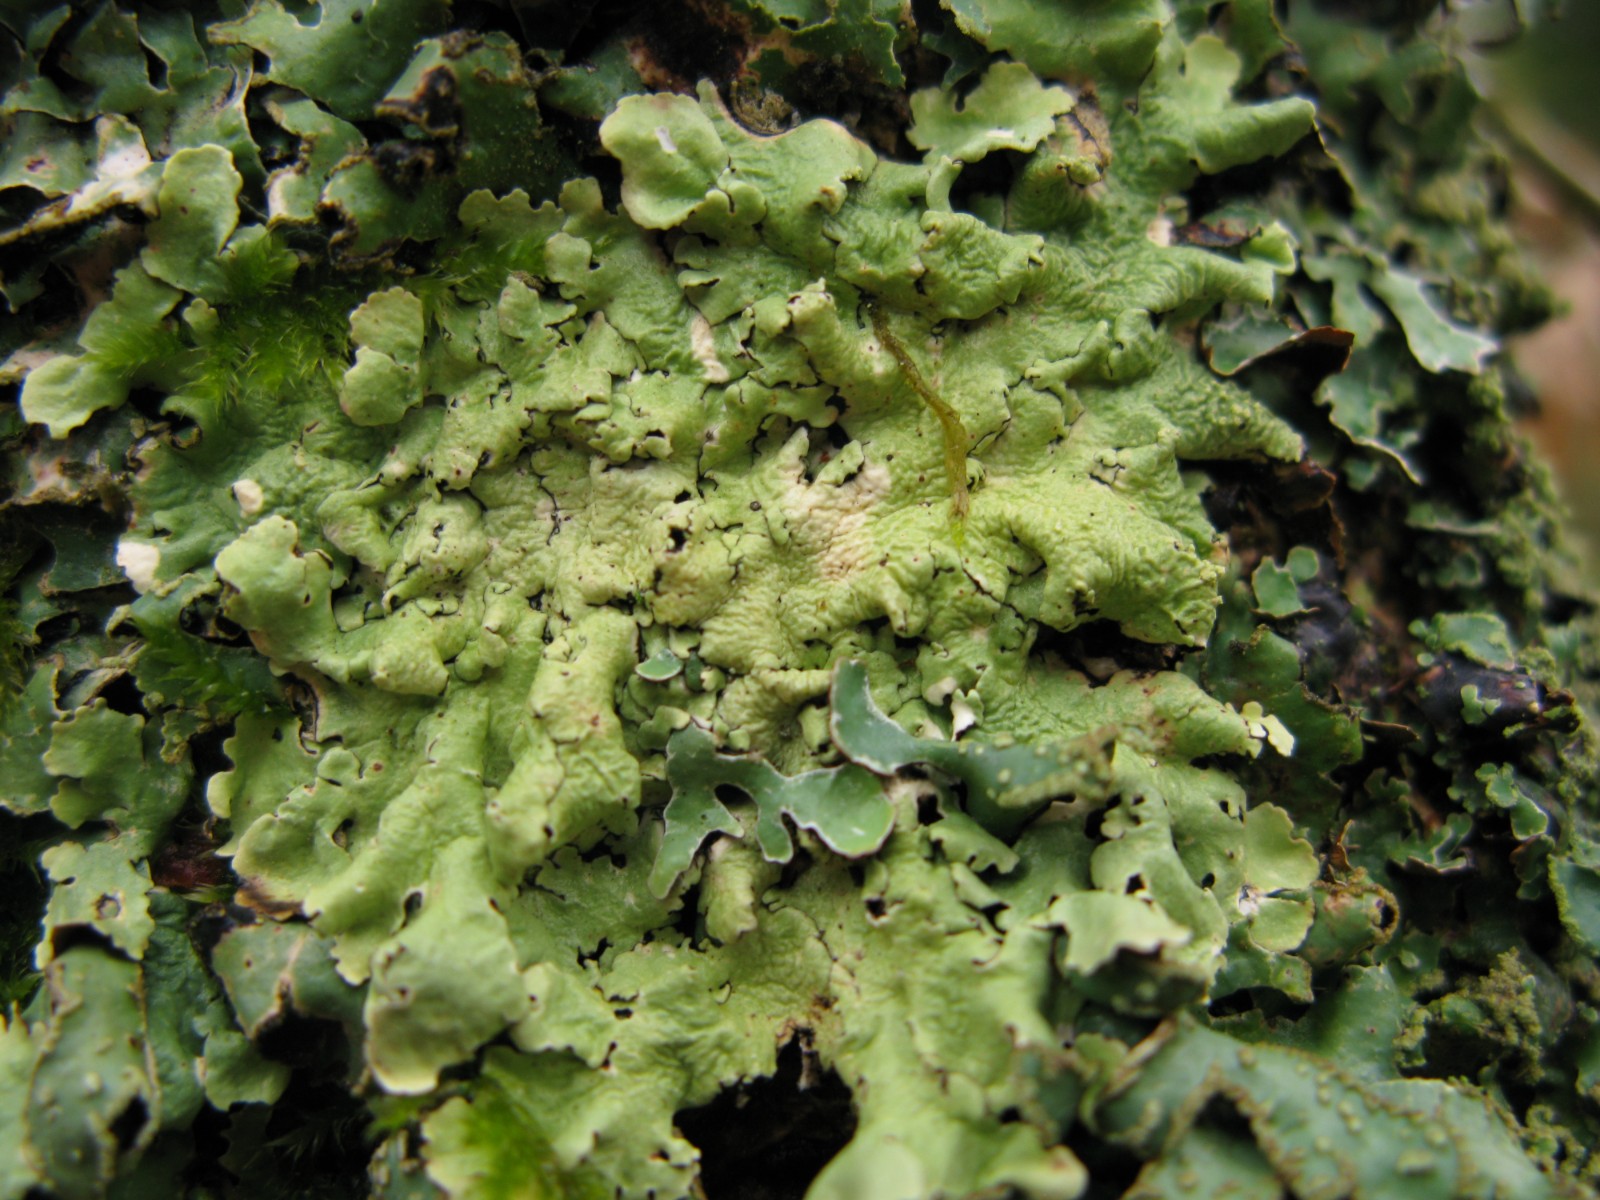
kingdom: Fungi
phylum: Ascomycota
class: Lecanoromycetes
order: Lecanorales
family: Parmeliaceae
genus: Flavoparmelia
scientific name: Flavoparmelia caperata
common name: gulgrøn skållav
